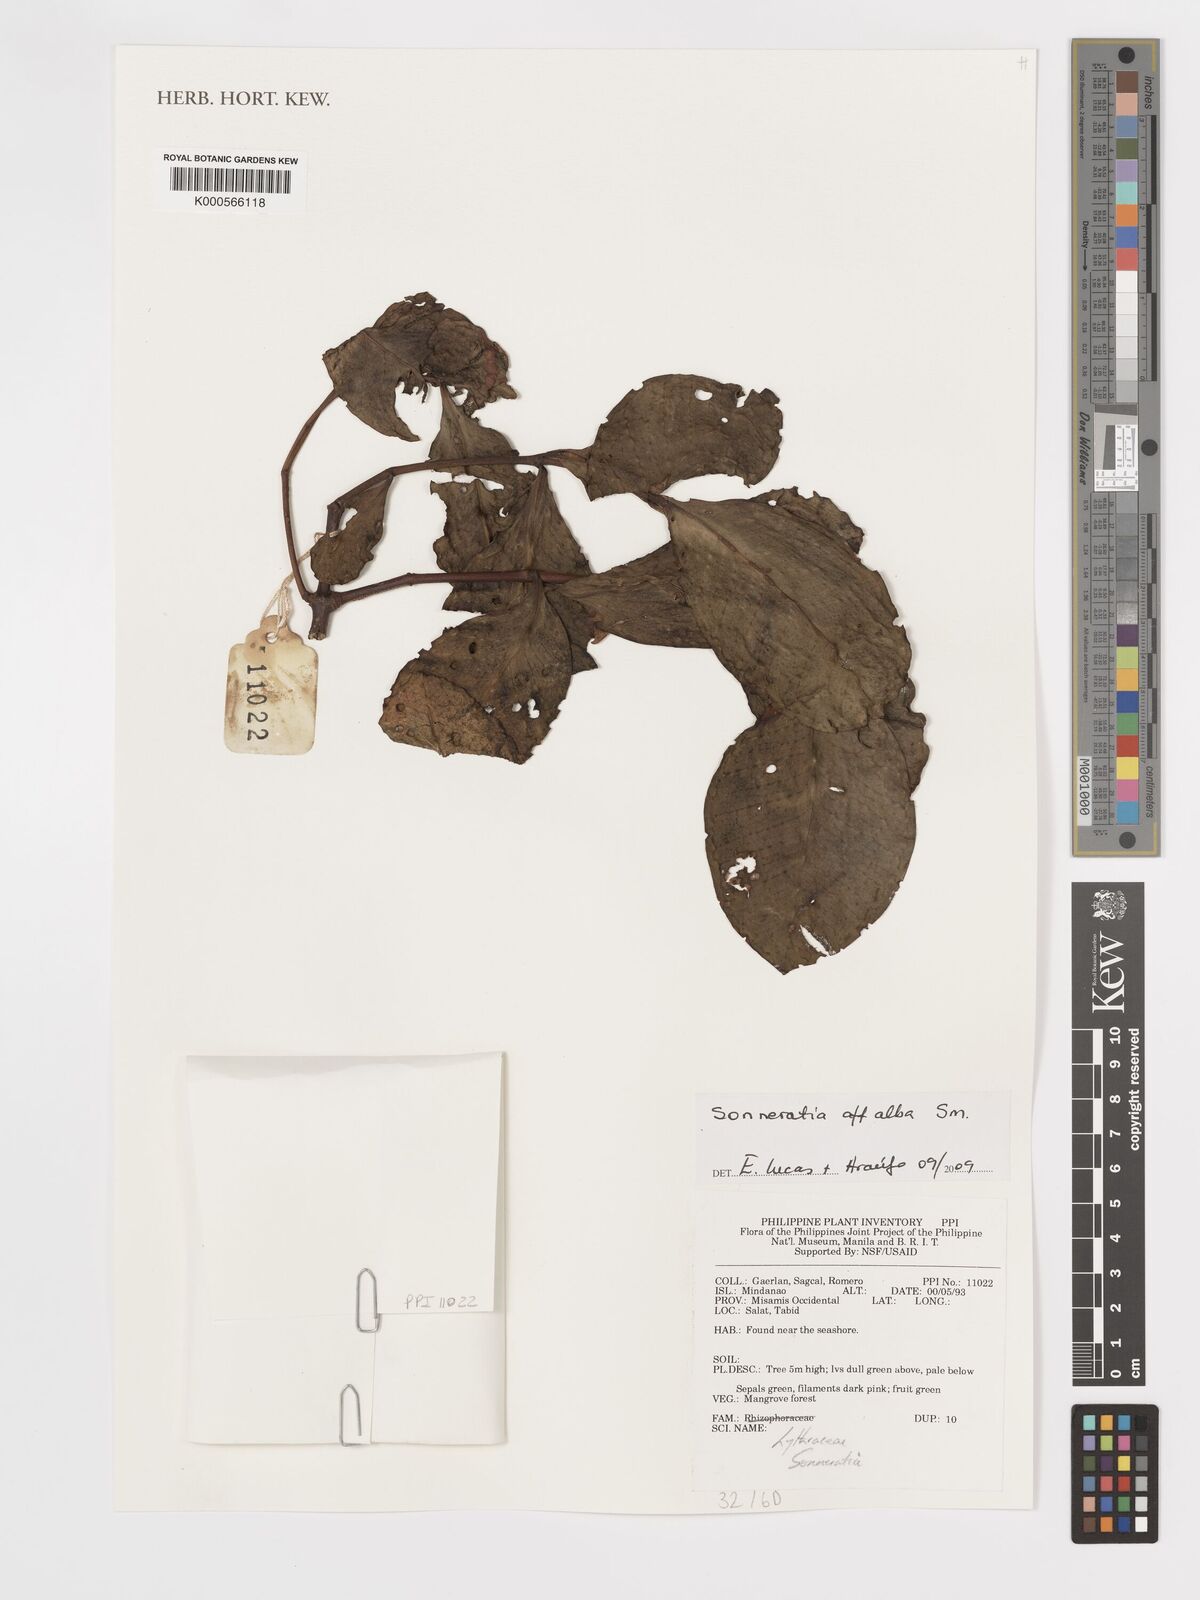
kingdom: Plantae
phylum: Tracheophyta
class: Magnoliopsida
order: Myrtales
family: Lythraceae
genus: Sonneratia
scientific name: Sonneratia alba
